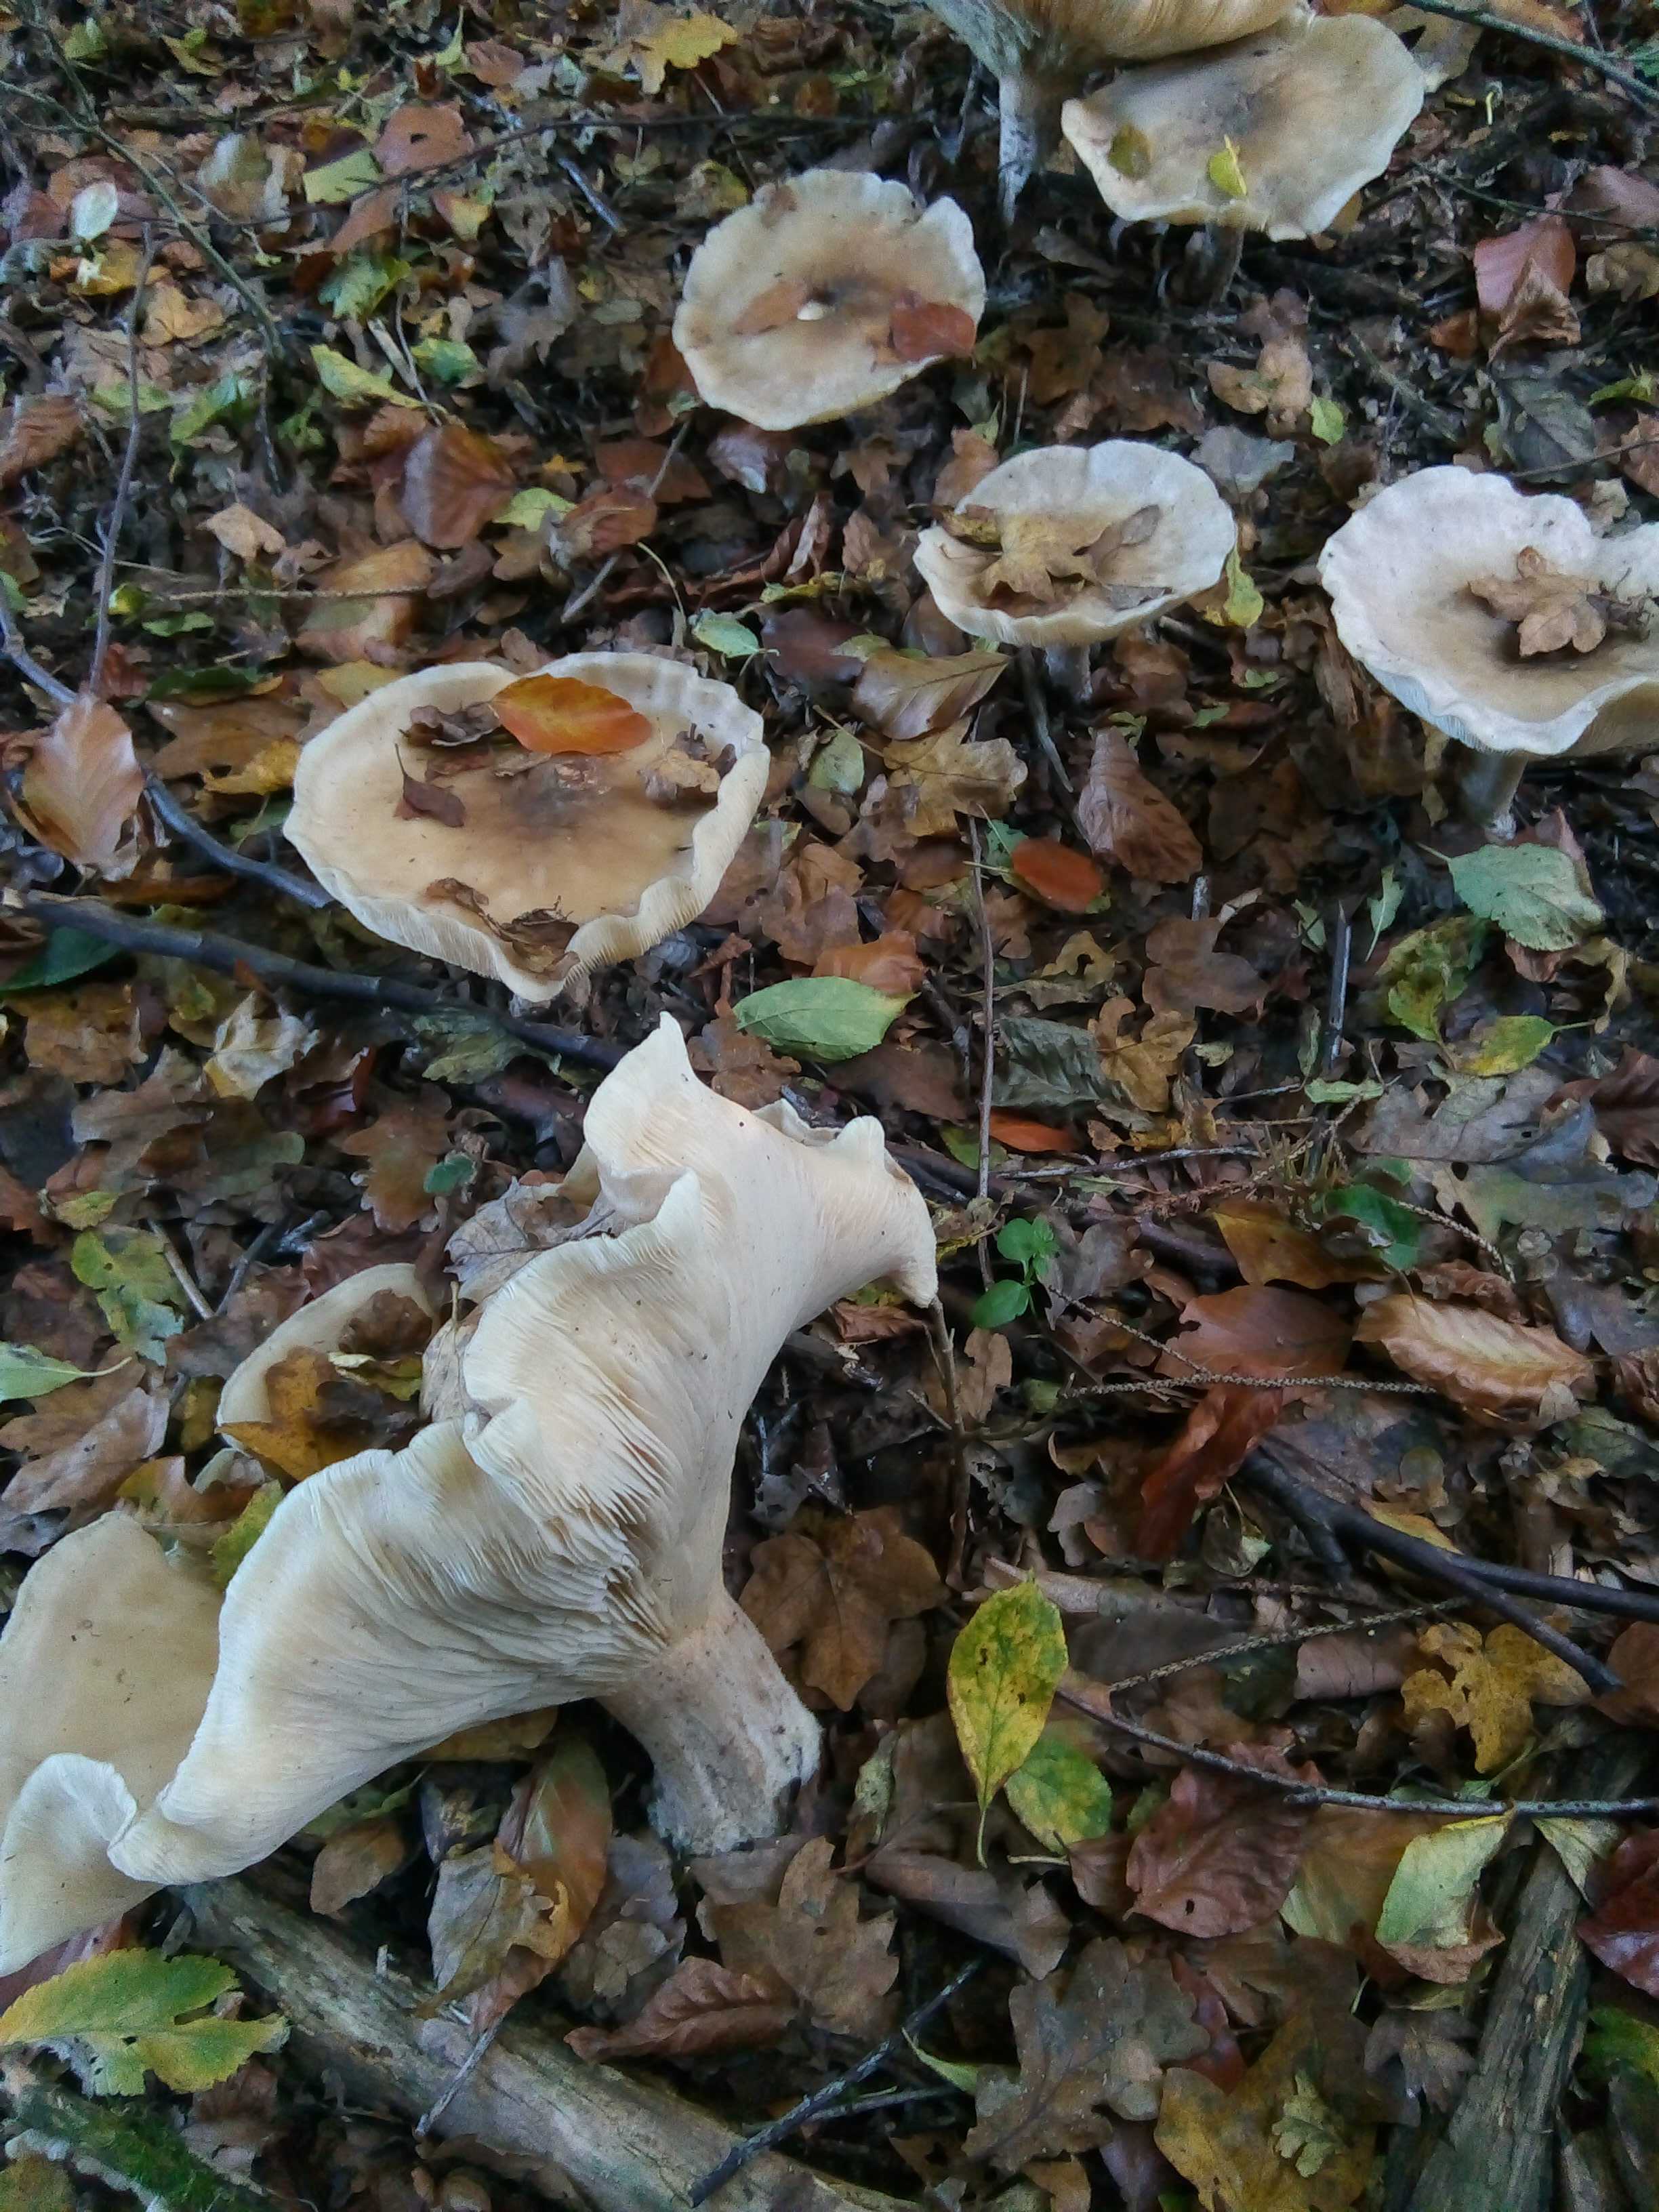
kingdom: Fungi
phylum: Basidiomycota
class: Agaricomycetes
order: Agaricales
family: Tricholomataceae
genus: Clitocybe
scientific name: Clitocybe nebularis
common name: tåge-tragthat
